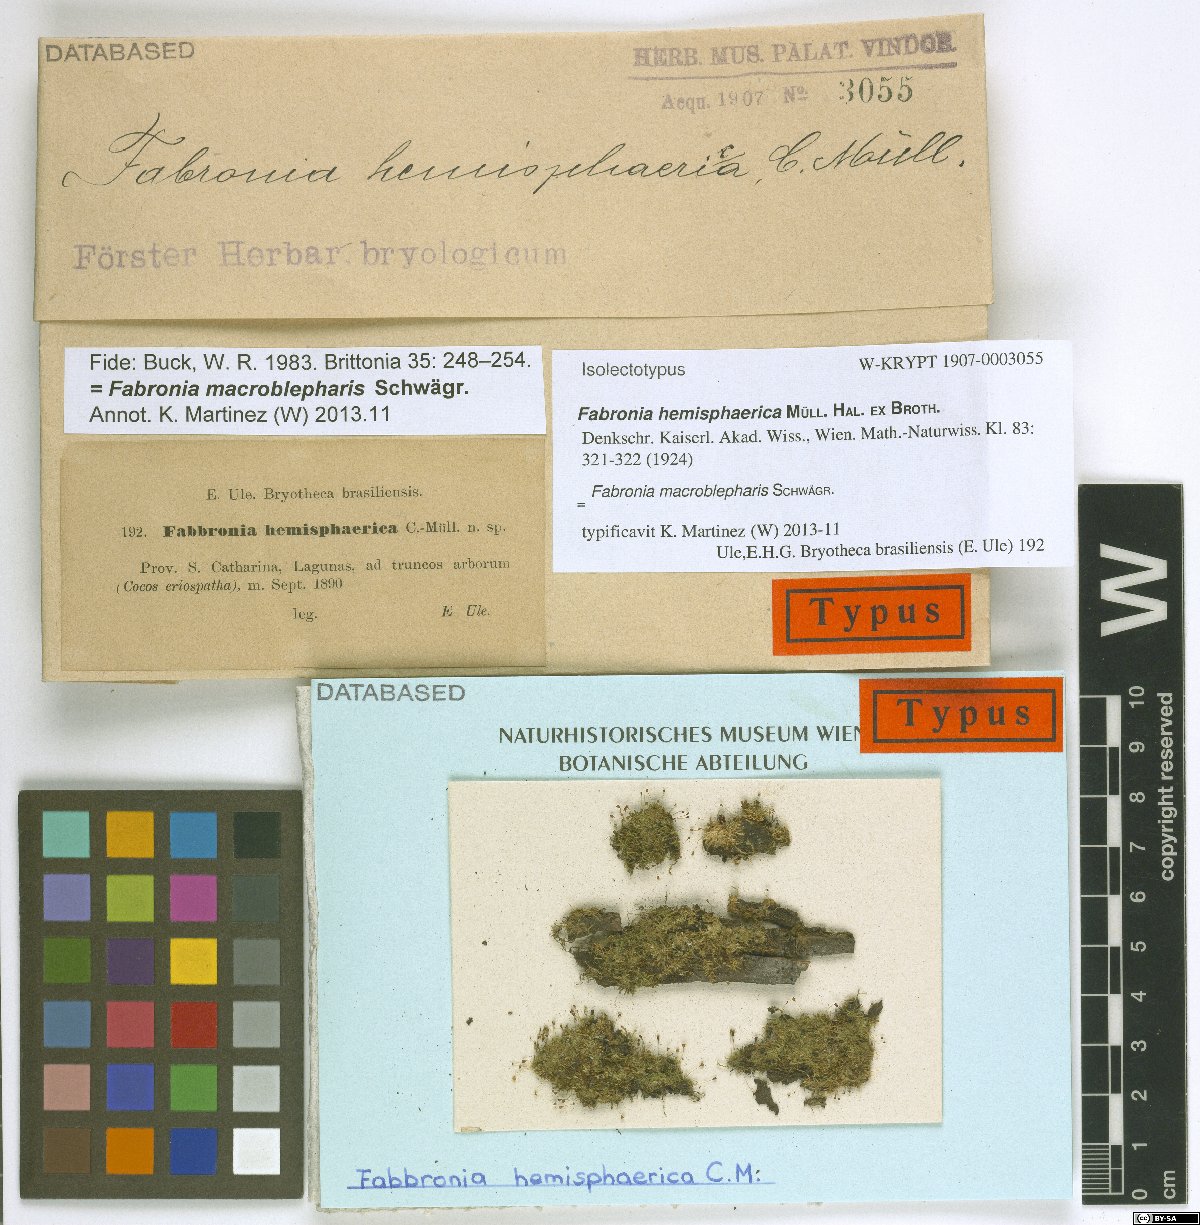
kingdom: Plantae
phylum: Bryophyta
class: Bryopsida
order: Hypnales
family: Fabroniaceae
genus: Fabronia
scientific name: Fabronia macroblepharis
